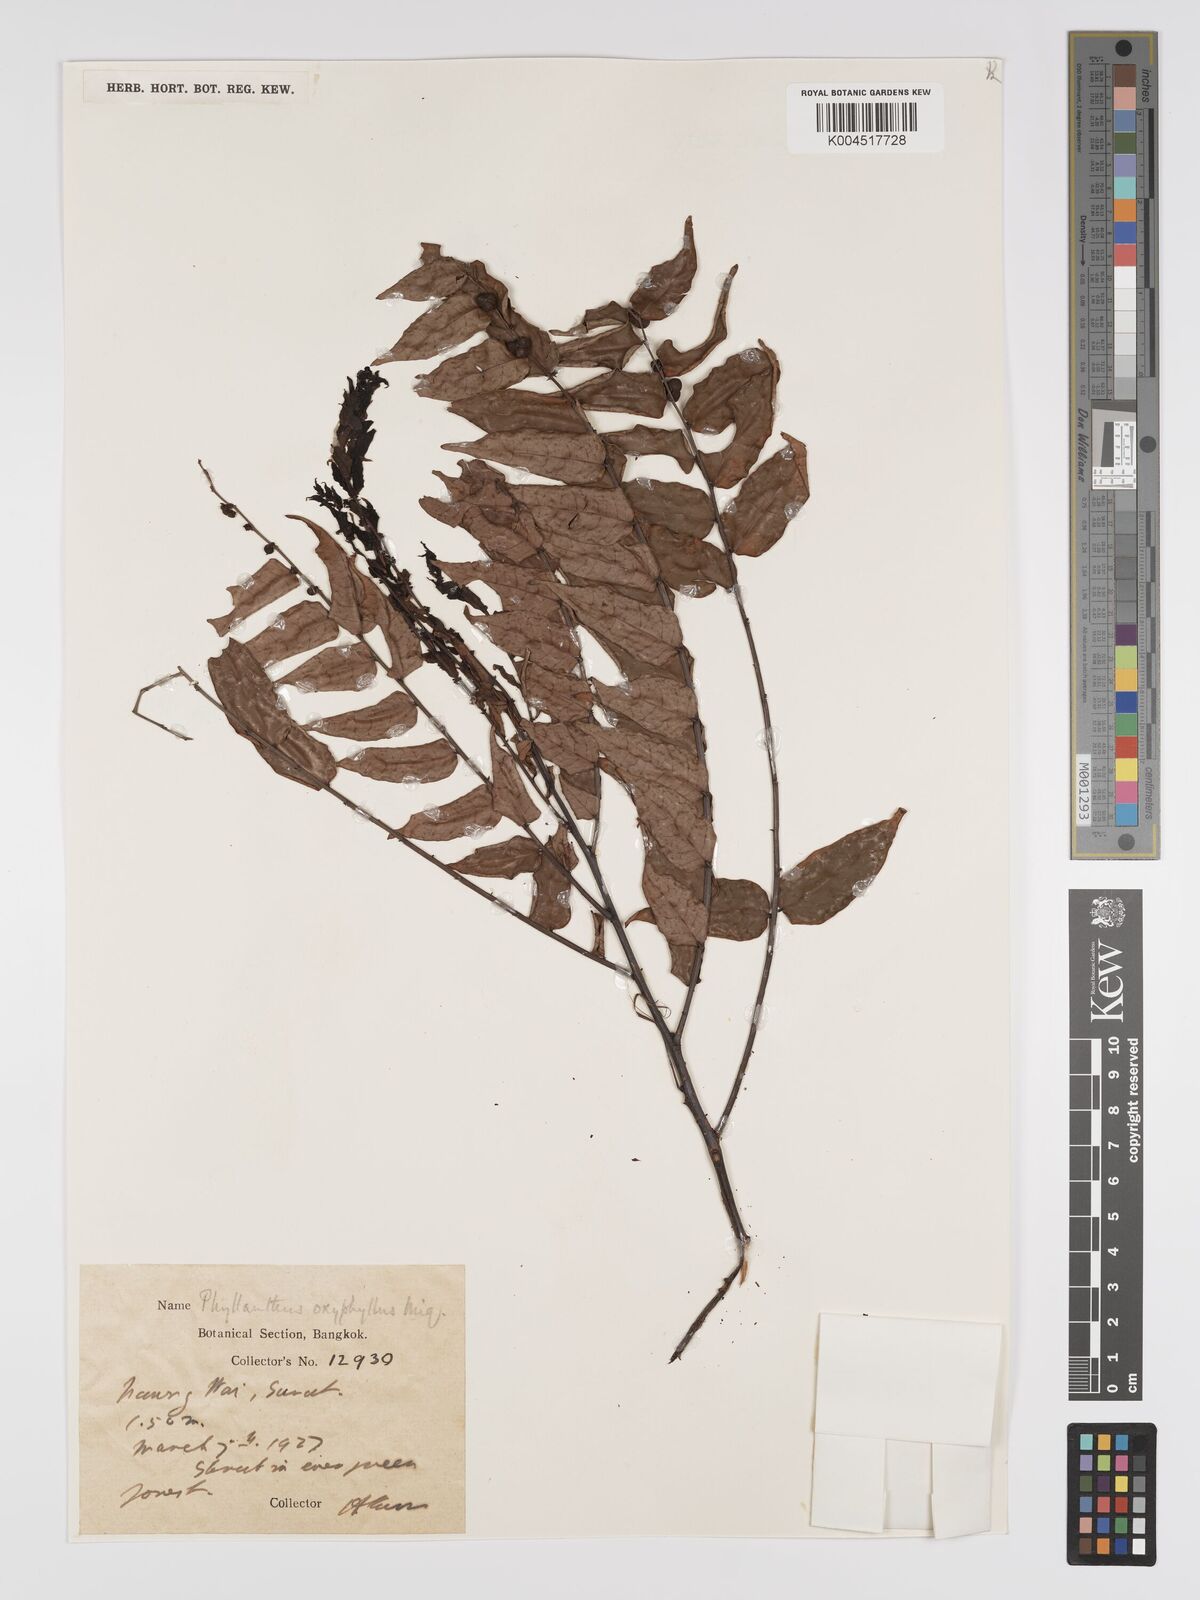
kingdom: Plantae
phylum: Tracheophyta
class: Magnoliopsida
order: Malpighiales
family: Phyllanthaceae
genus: Phyllanthus
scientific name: Phyllanthus
